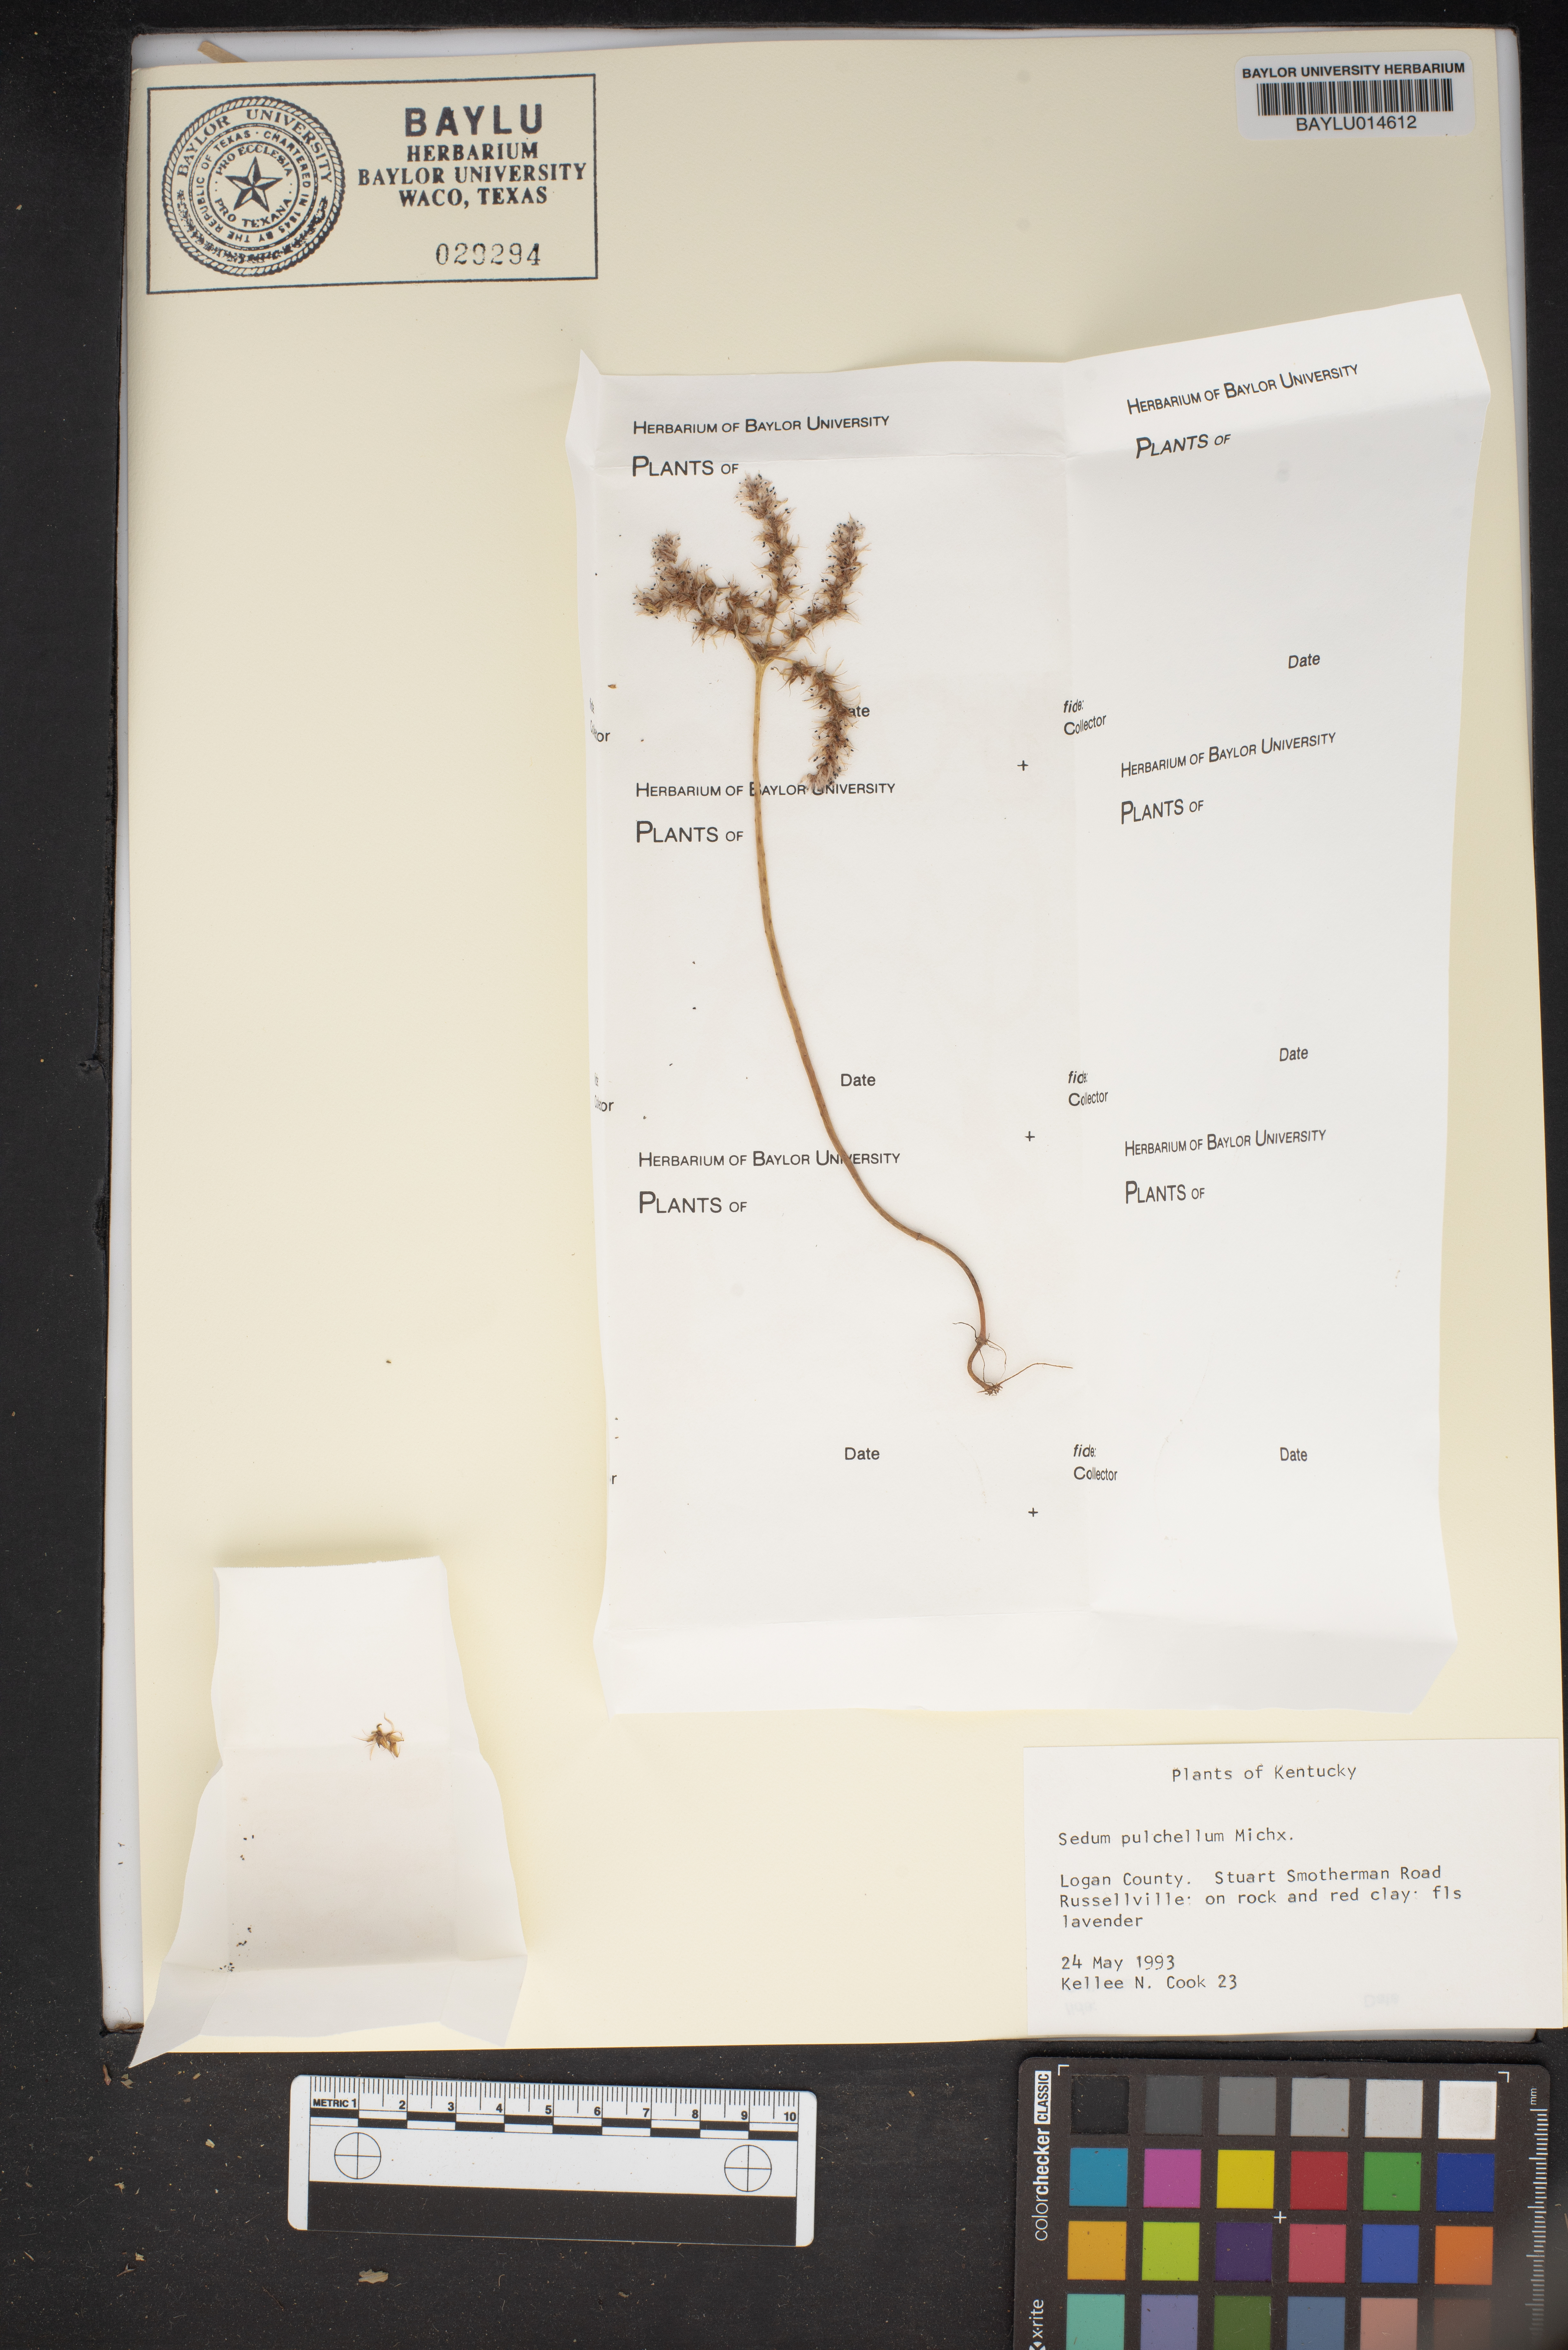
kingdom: Plantae
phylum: Tracheophyta
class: Magnoliopsida
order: Saxifragales
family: Crassulaceae
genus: Sedum
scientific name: Sedum pulchellum
